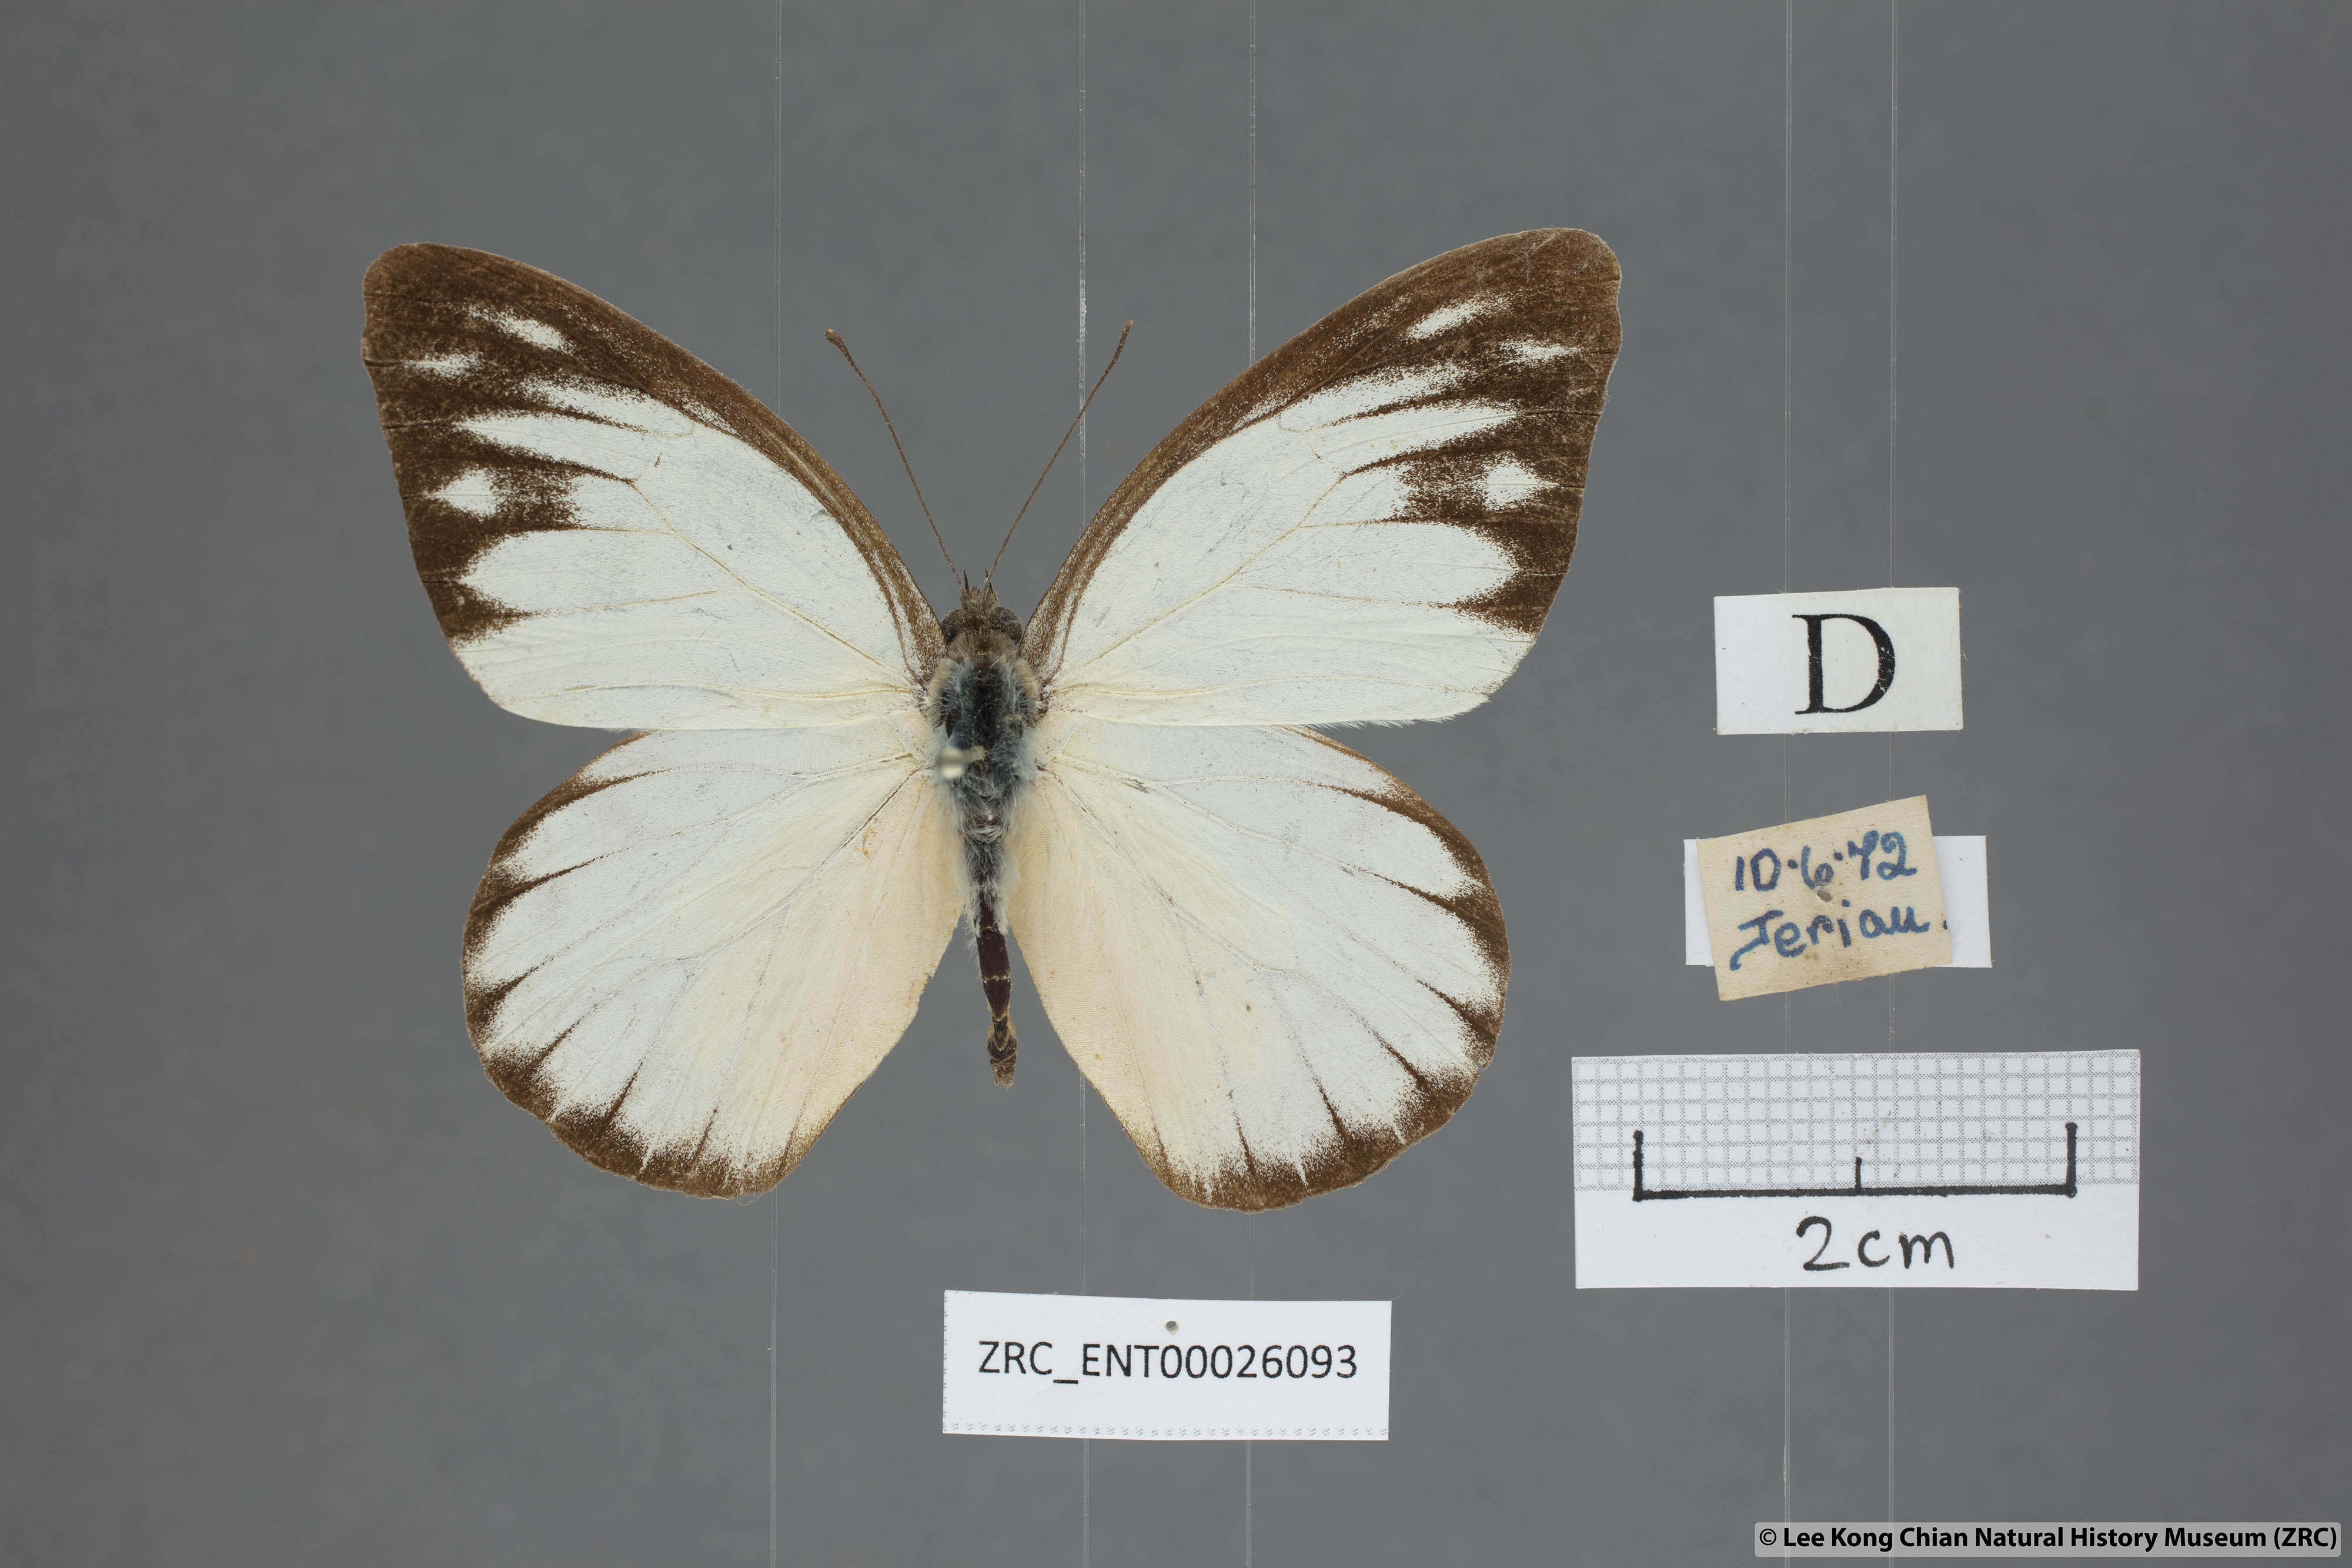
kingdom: Animalia
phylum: Arthropoda
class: Insecta
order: Lepidoptera
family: Pieridae
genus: Appias
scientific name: Appias cardena
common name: Yellow puffin
